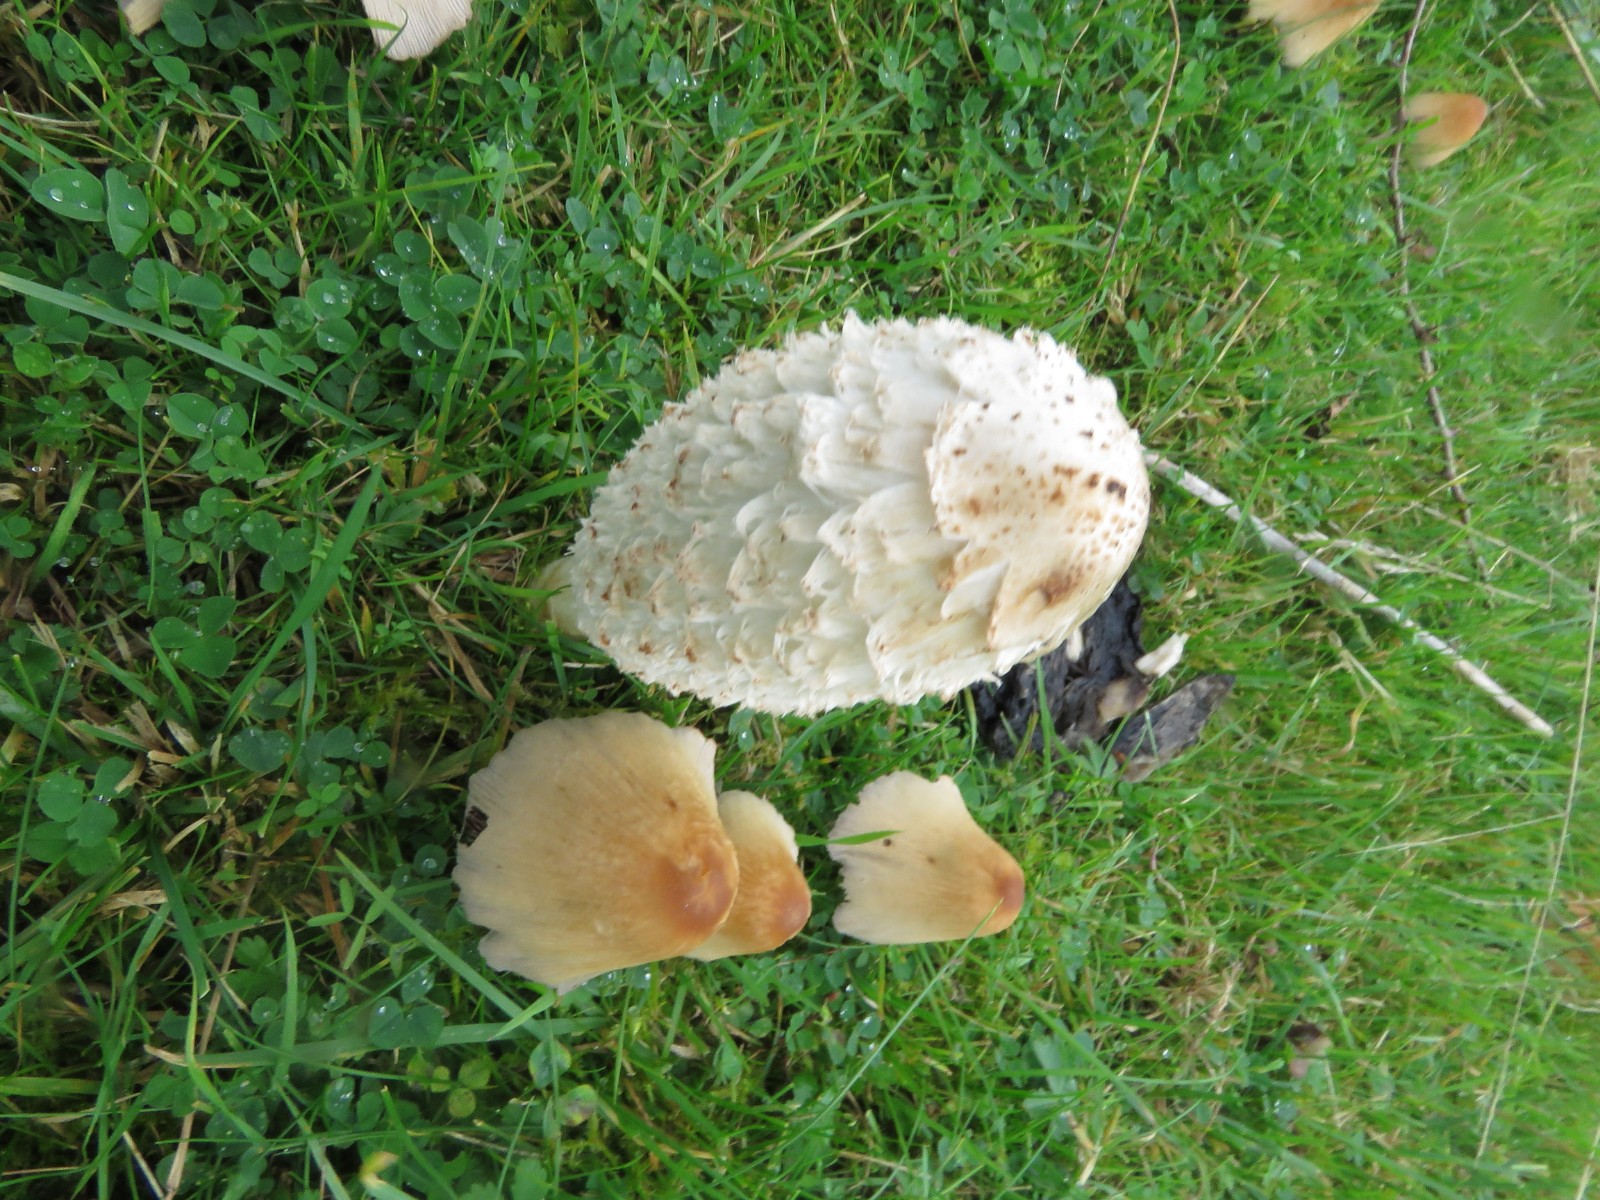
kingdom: Fungi
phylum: Basidiomycota
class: Agaricomycetes
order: Agaricales
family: Agaricaceae
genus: Coprinus
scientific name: Coprinus comatus
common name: stor parykhat
